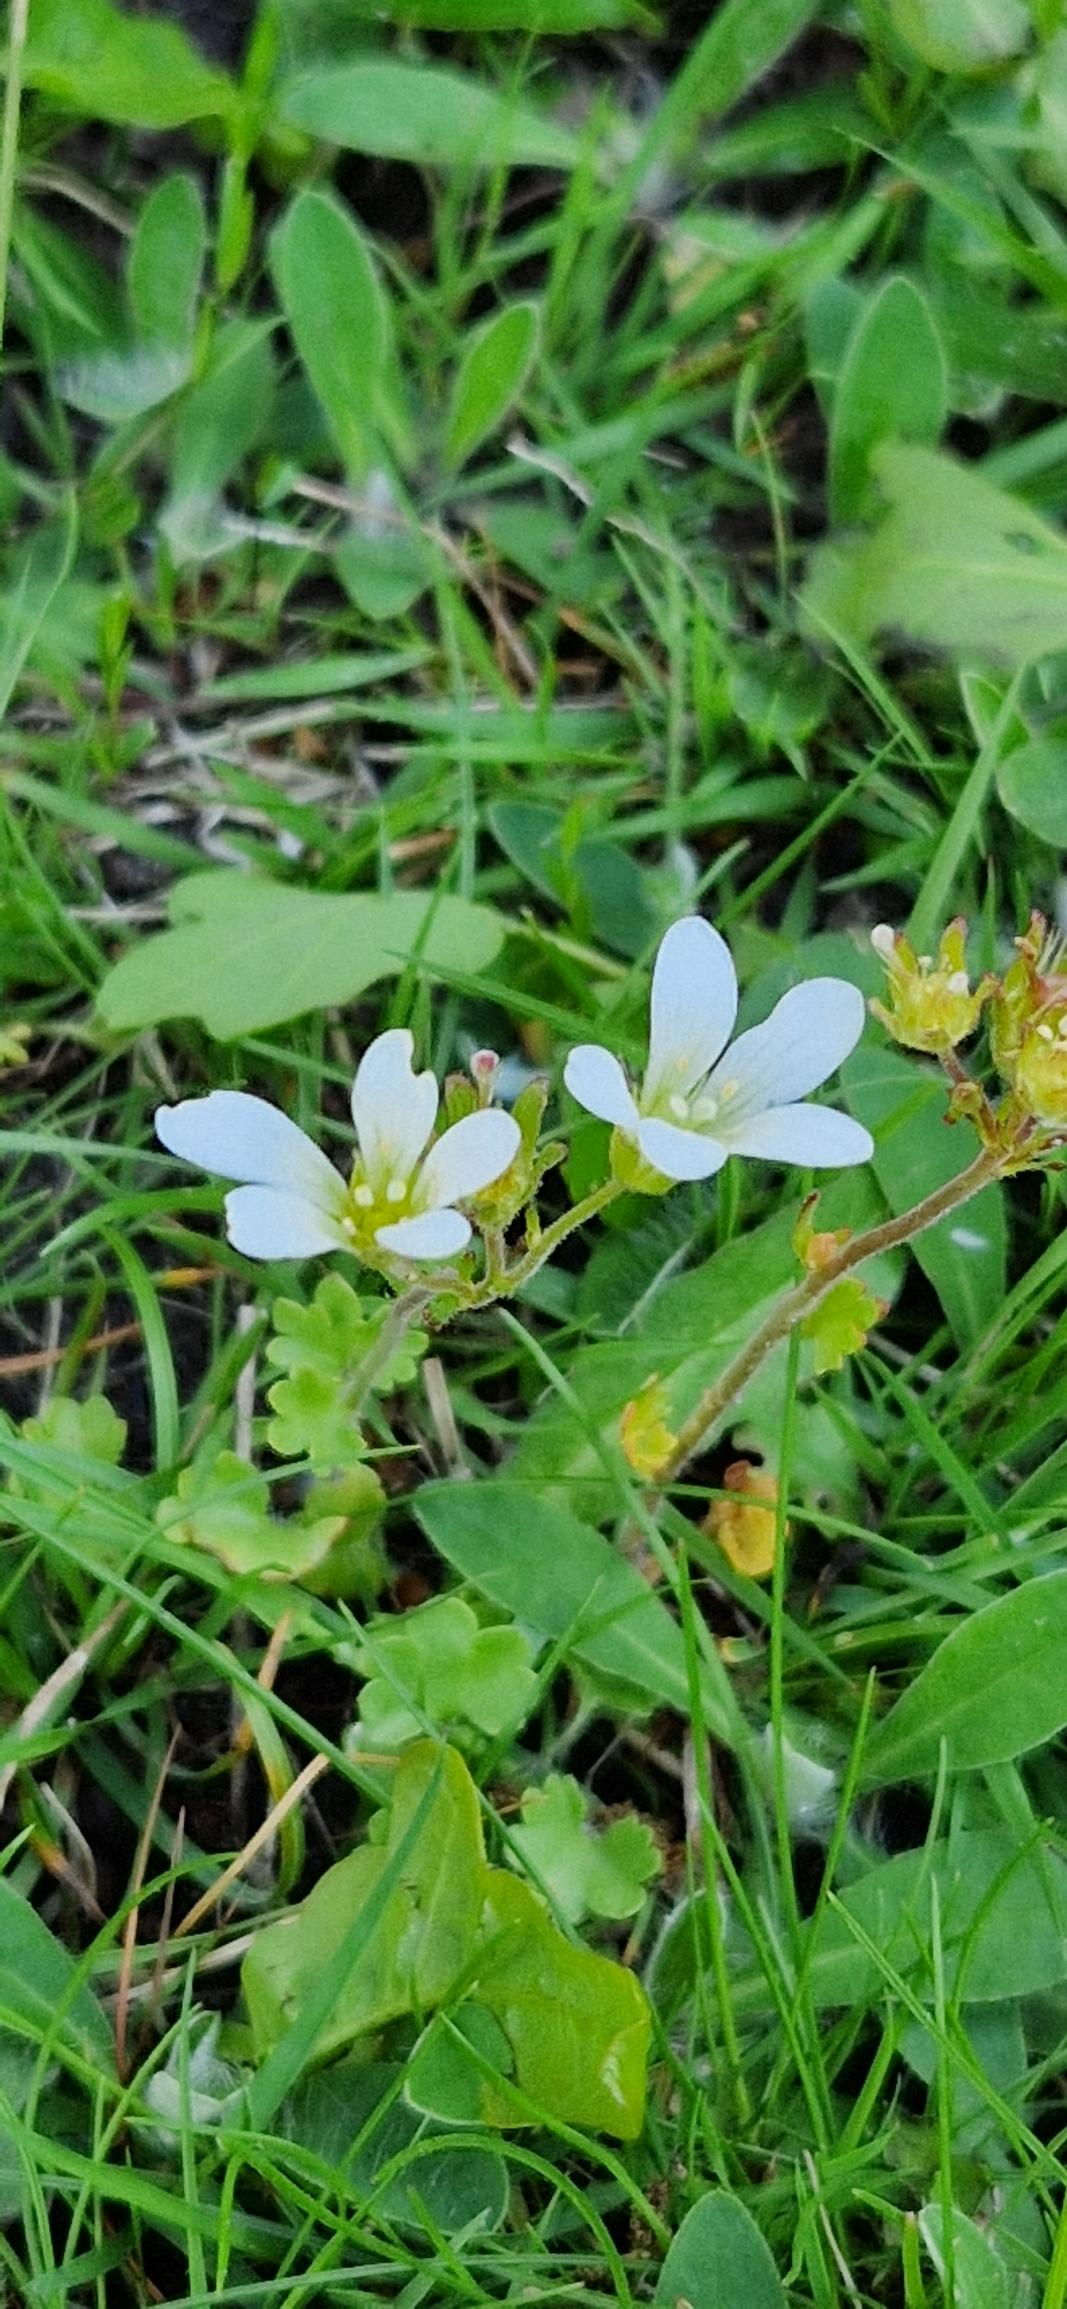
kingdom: Plantae
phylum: Tracheophyta
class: Magnoliopsida
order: Saxifragales
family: Saxifragaceae
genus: Saxifraga
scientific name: Saxifraga granulata
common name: Kornet stenbræk
